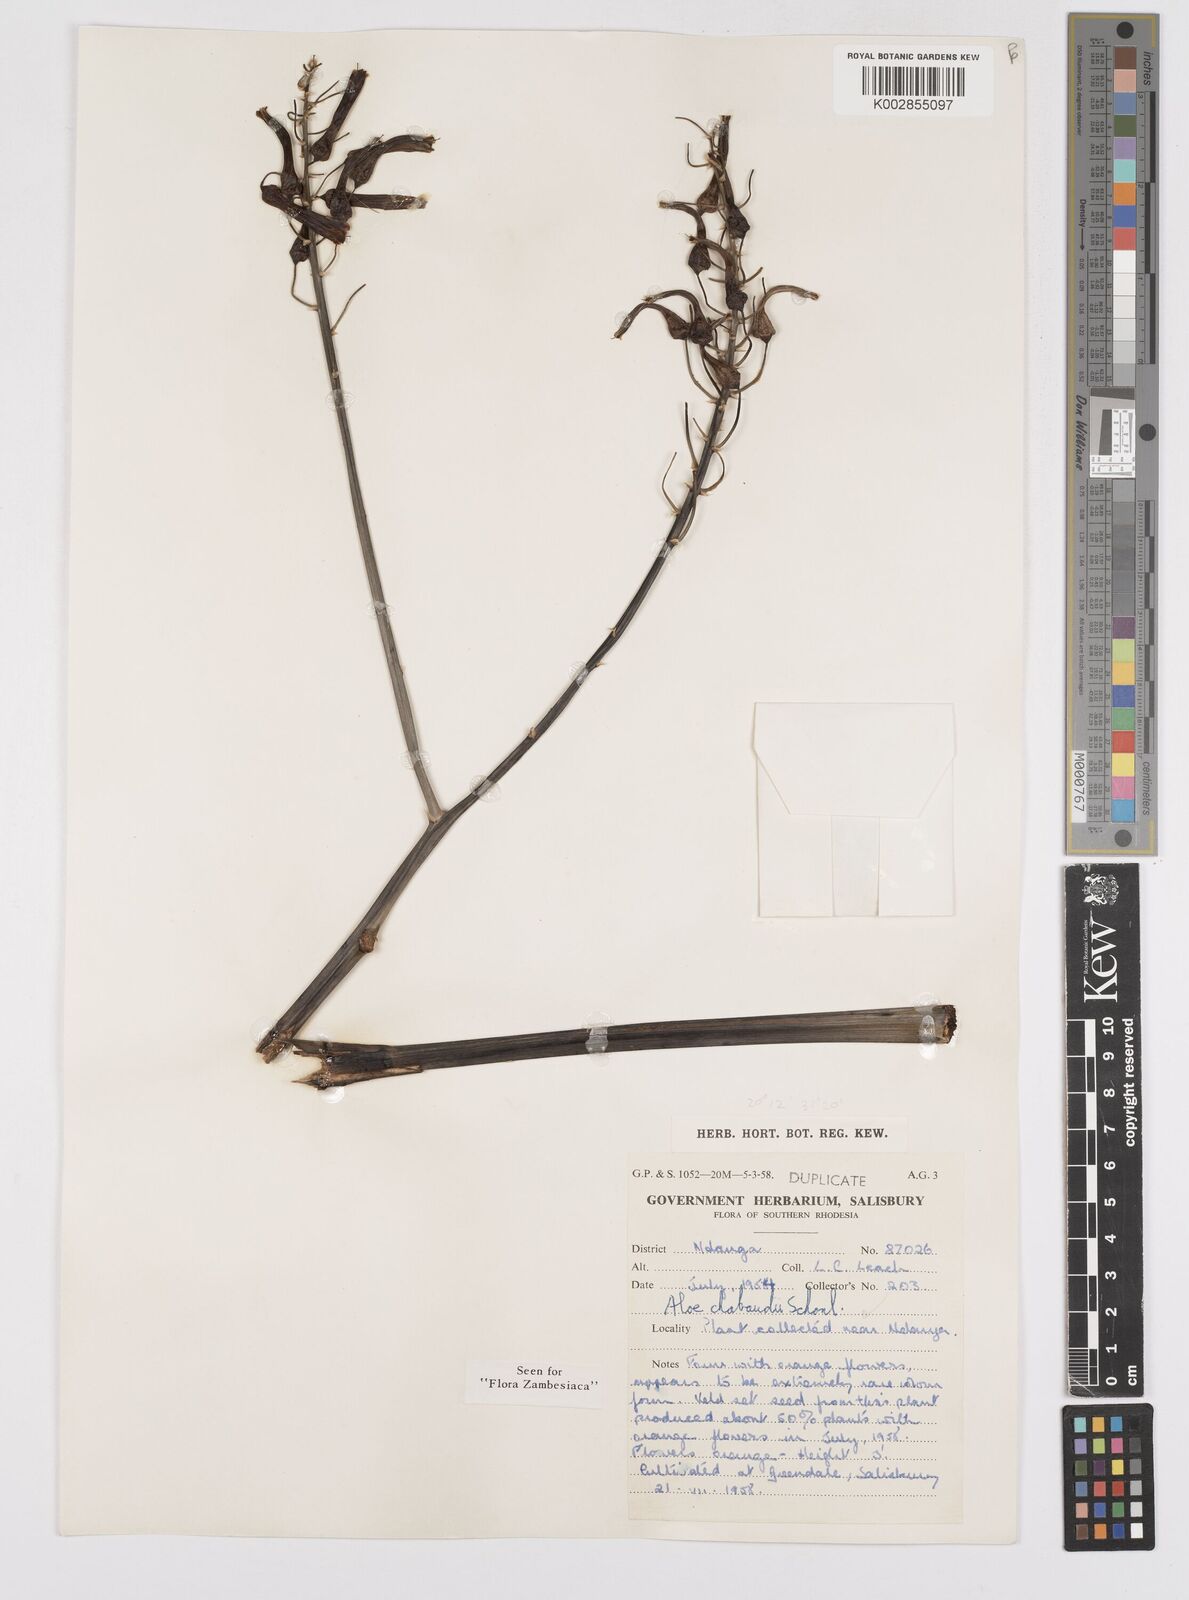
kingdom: Plantae
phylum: Tracheophyta
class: Liliopsida
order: Asparagales
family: Asphodelaceae
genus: Aloe
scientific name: Aloe chabaudii
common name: Chabaud's aloe
